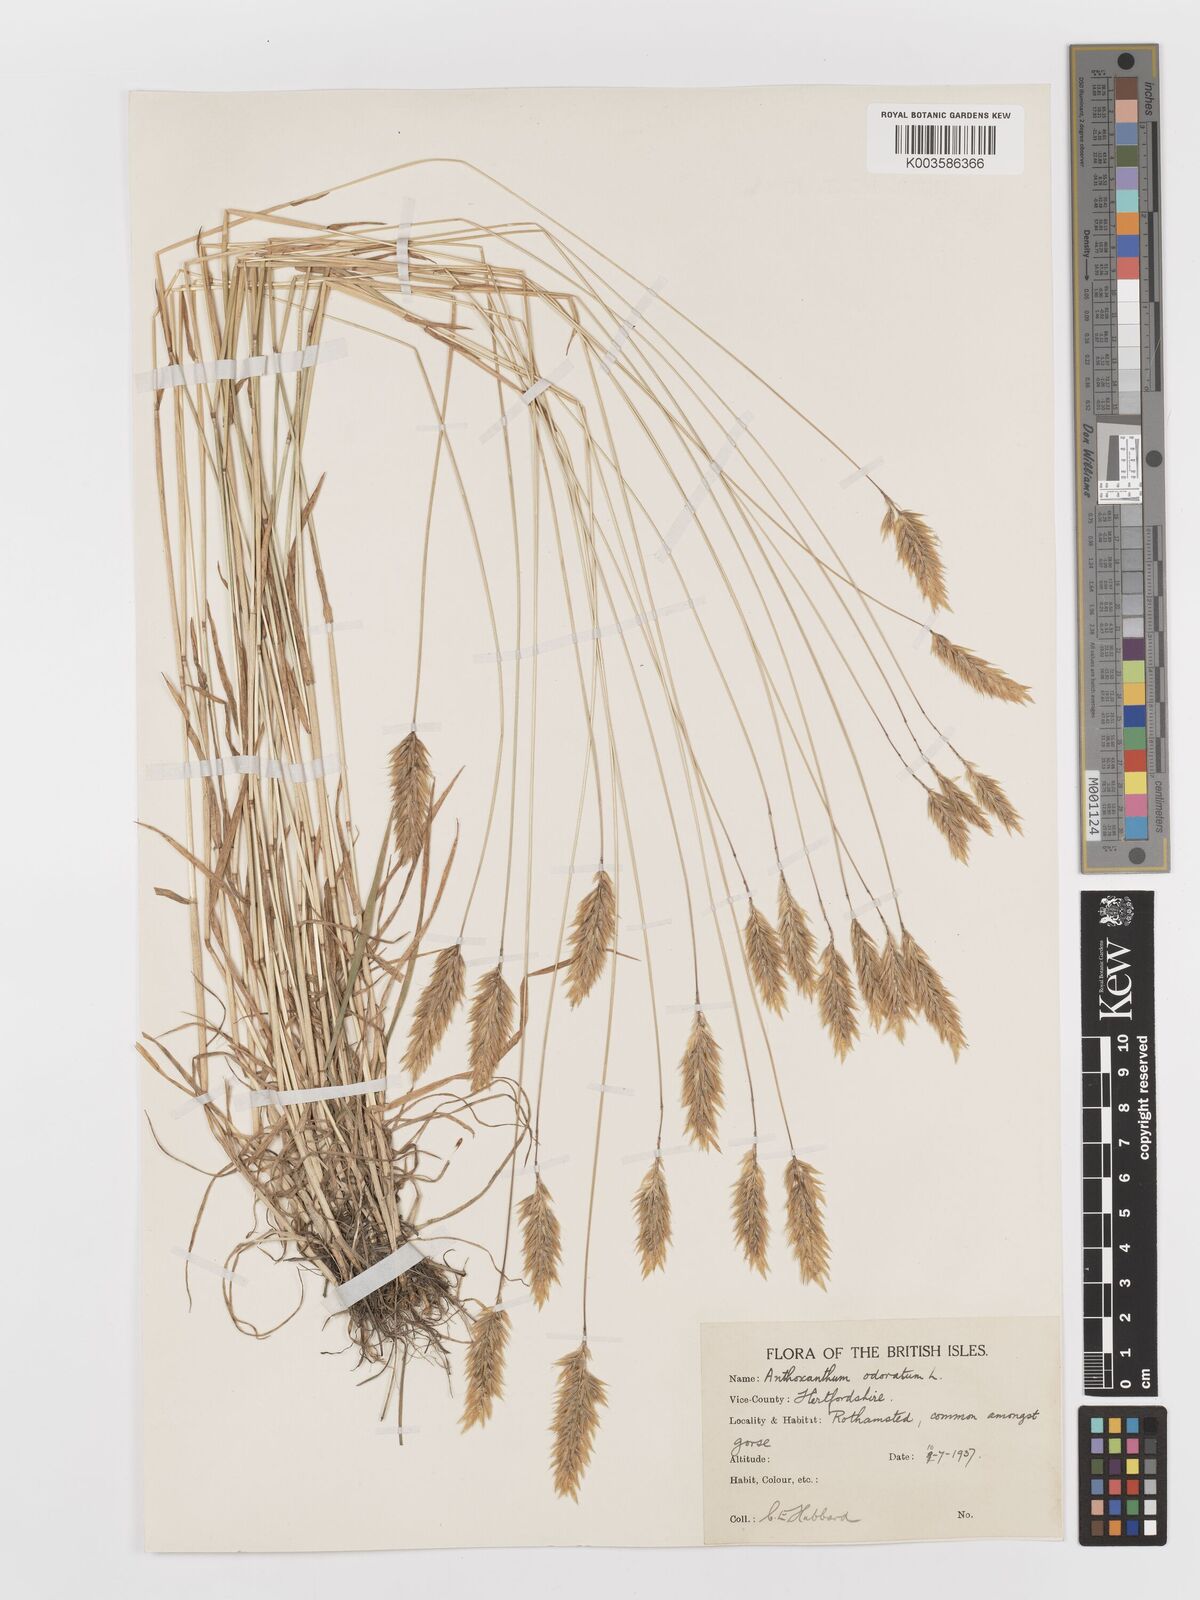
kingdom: Plantae
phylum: Tracheophyta
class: Liliopsida
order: Poales
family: Poaceae
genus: Anthoxanthum
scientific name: Anthoxanthum odoratum
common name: Sweet vernalgrass
